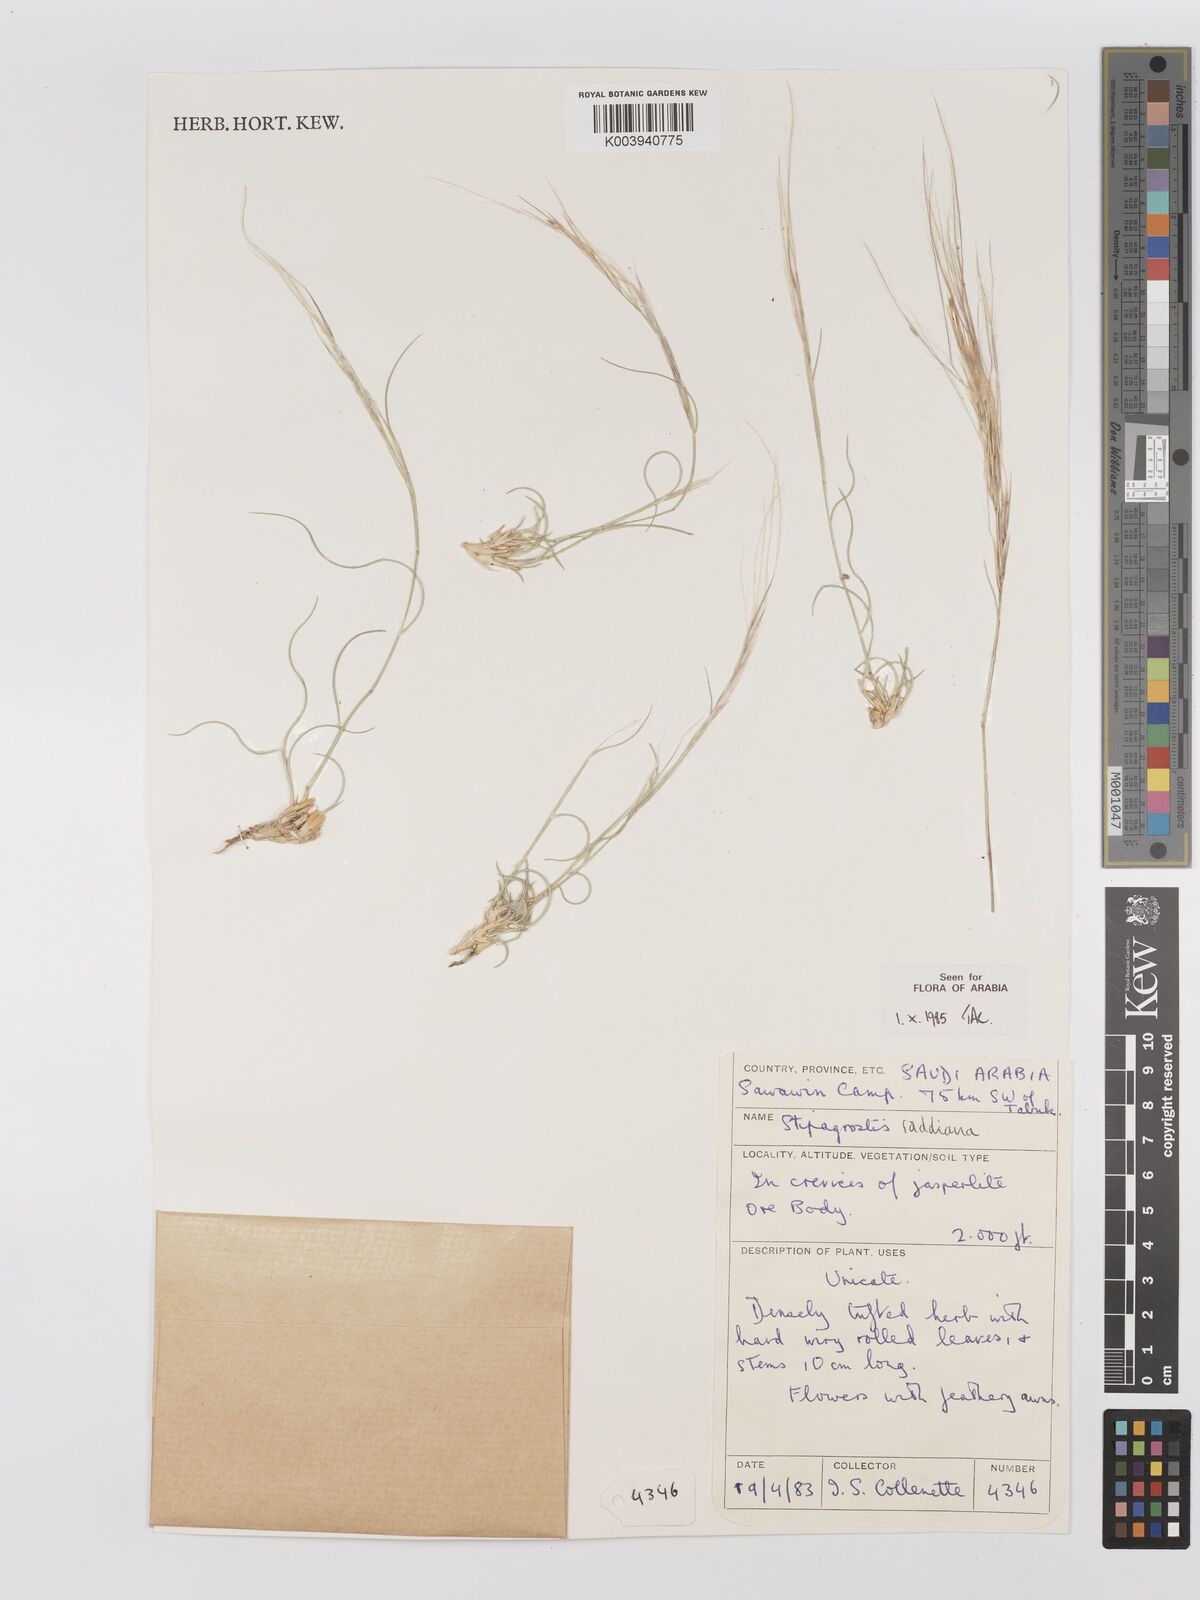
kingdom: Plantae
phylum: Tracheophyta
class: Liliopsida
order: Poales
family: Poaceae
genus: Stipagrostis
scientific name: Stipagrostis raddiana
